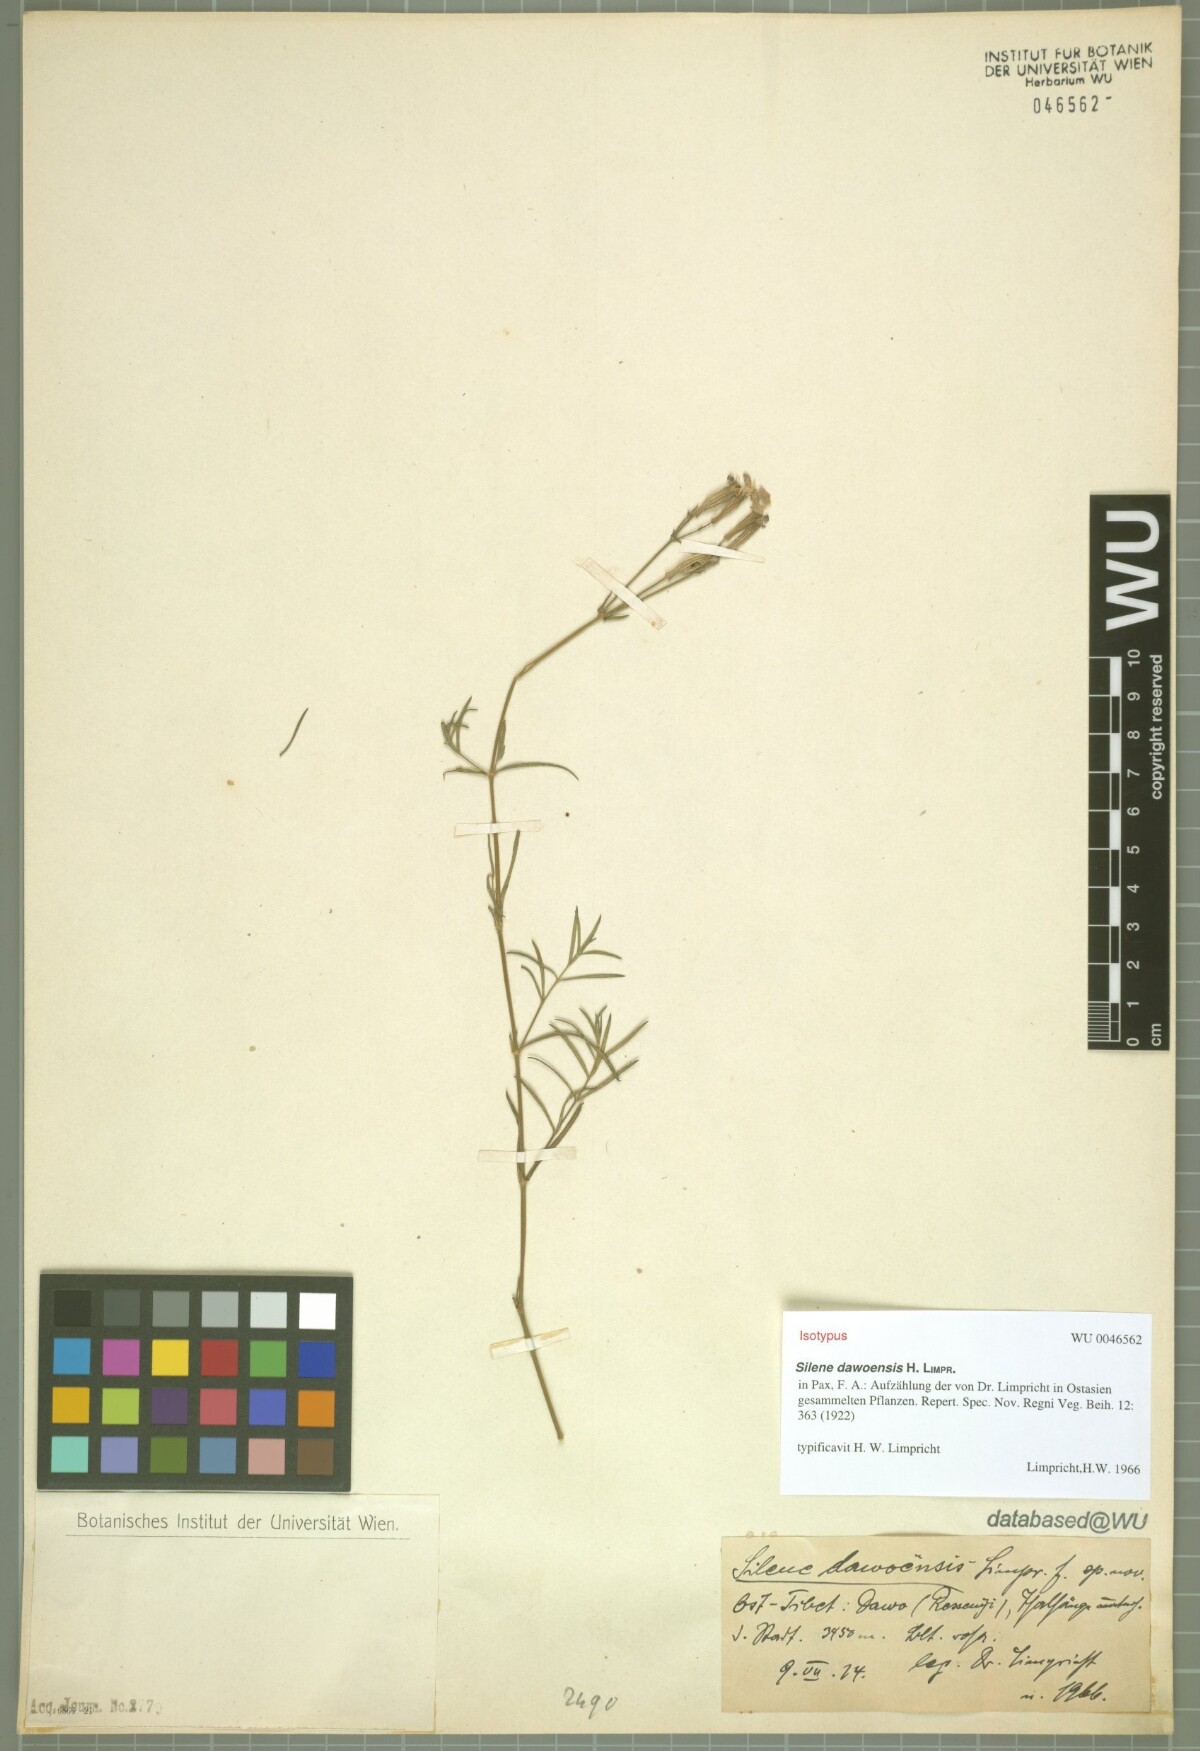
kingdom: Plantae
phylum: Tracheophyta
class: Magnoliopsida
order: Caryophyllales
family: Caryophyllaceae
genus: Silene
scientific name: Silene dawoensis
